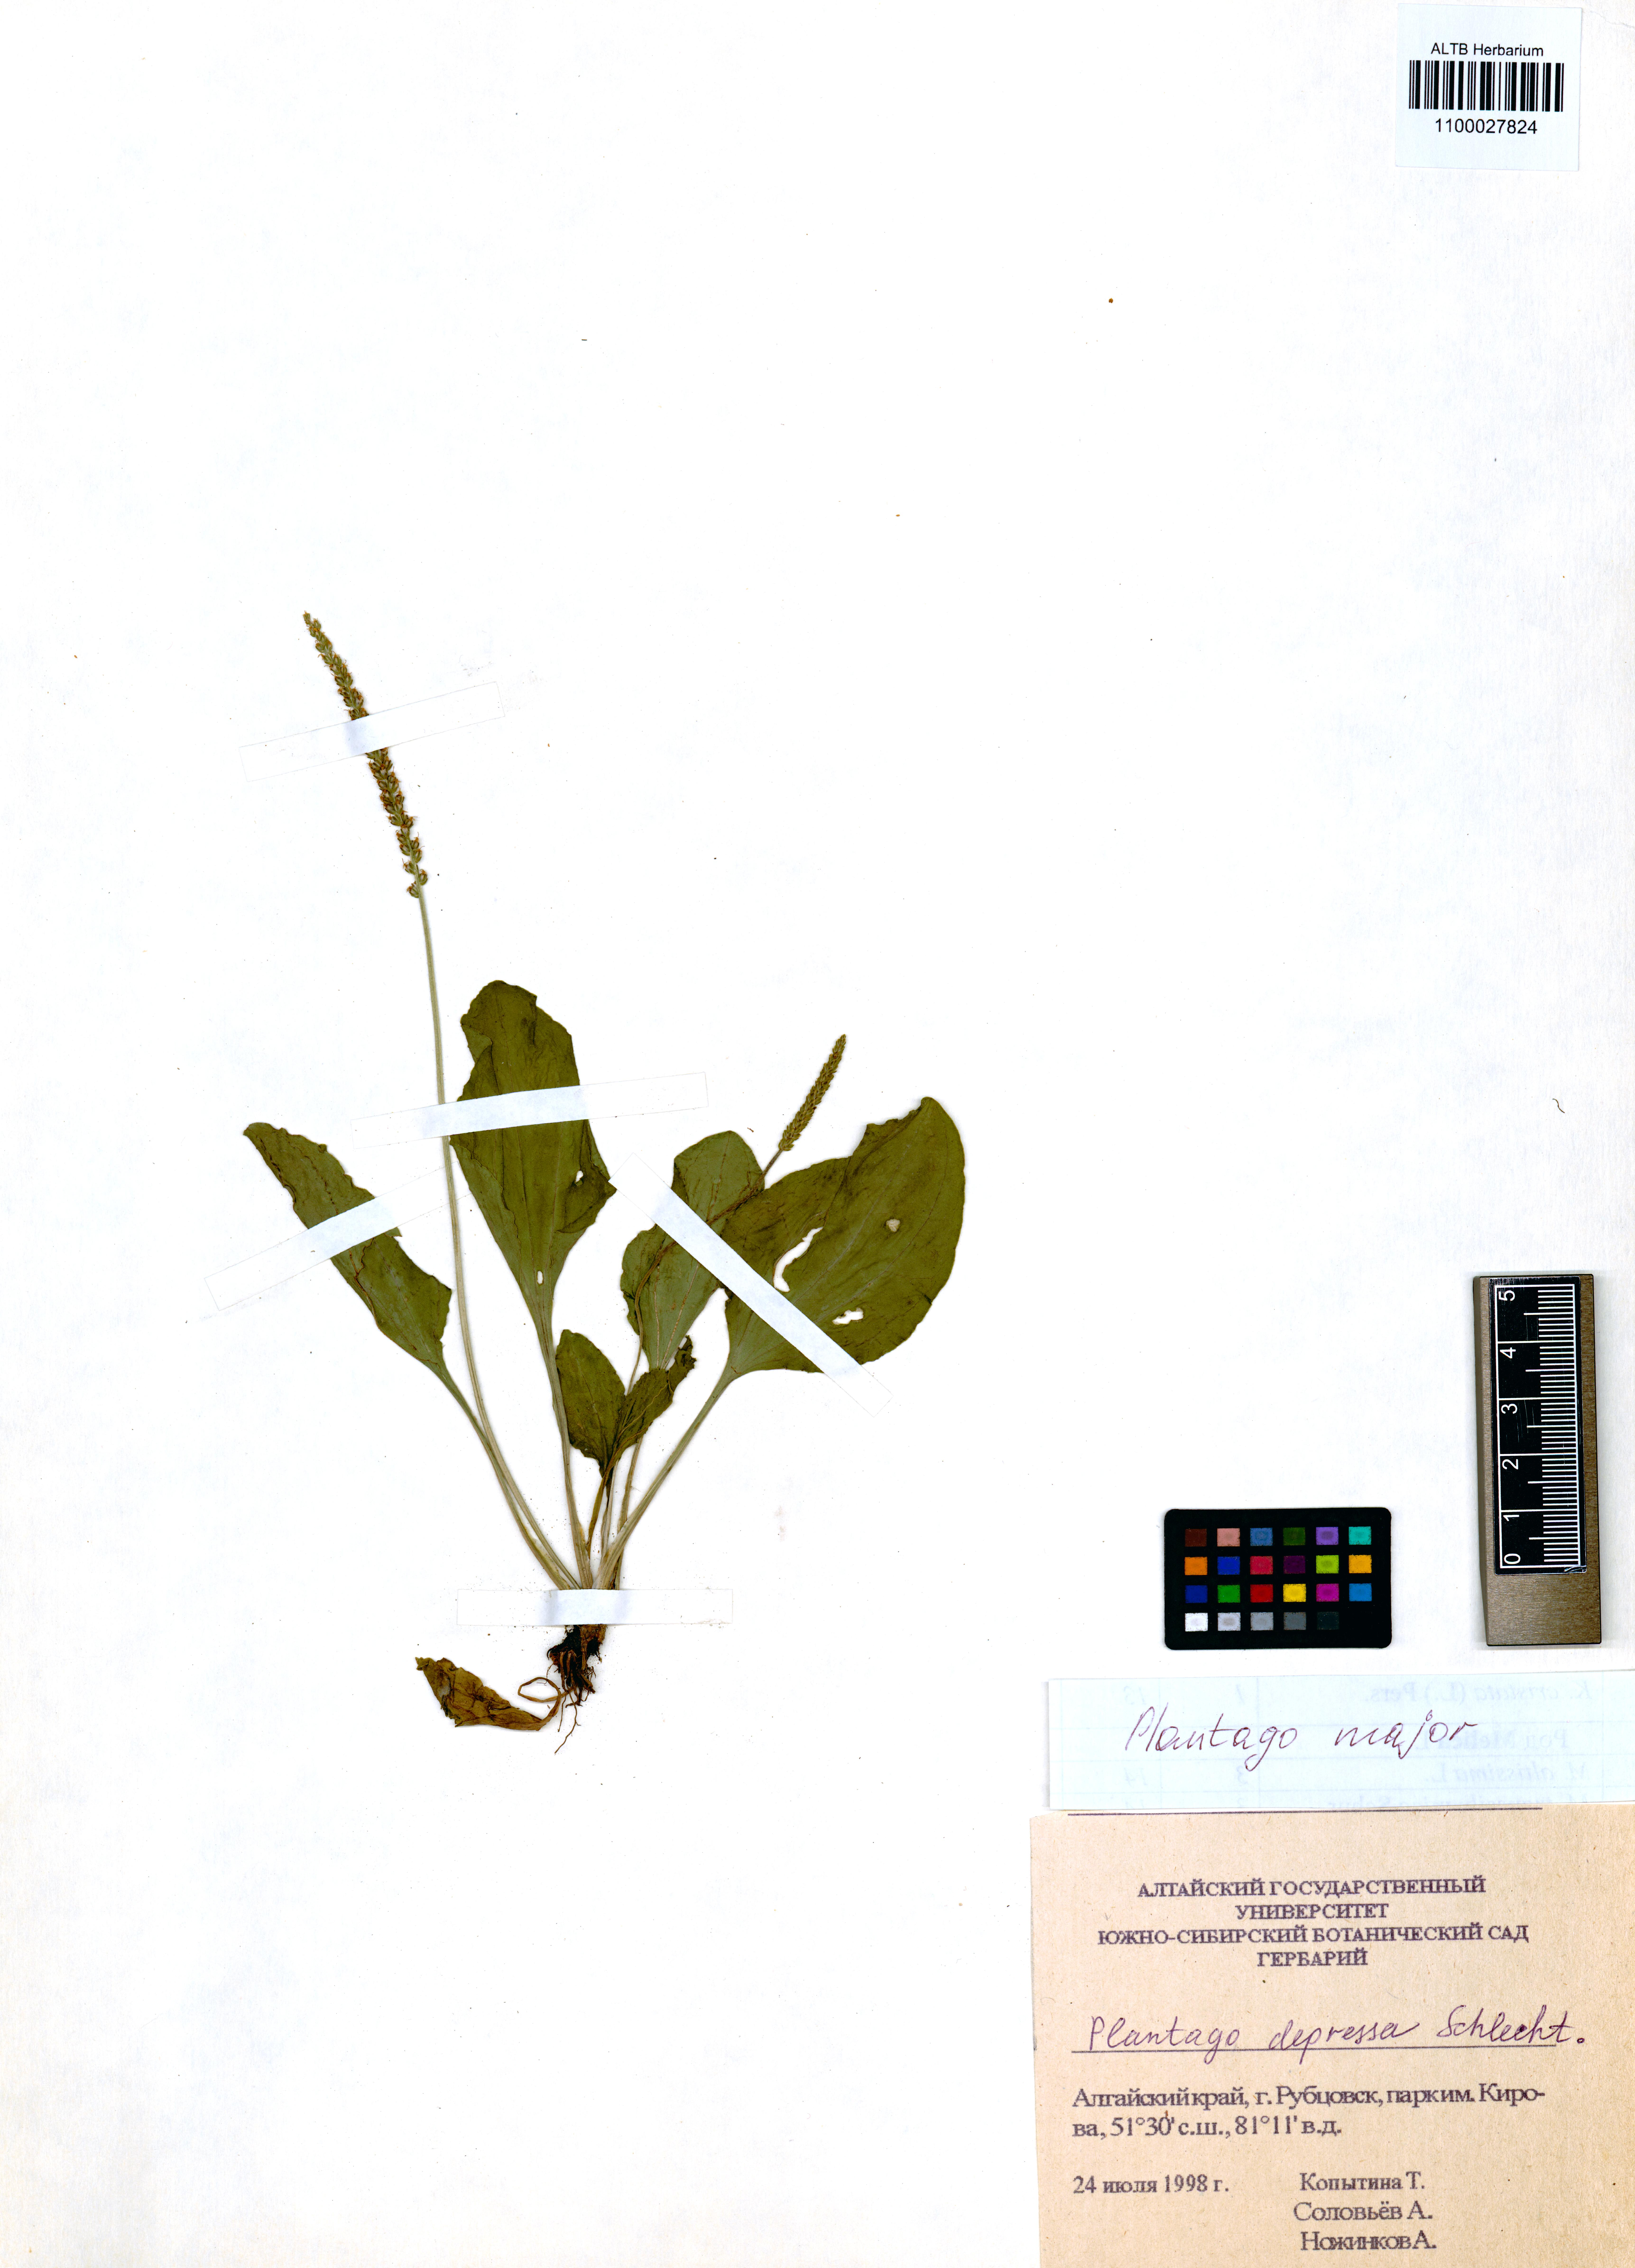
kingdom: Plantae
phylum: Tracheophyta
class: Magnoliopsida
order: Lamiales
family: Plantaginaceae
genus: Plantago
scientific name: Plantago major
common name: Common plantain
